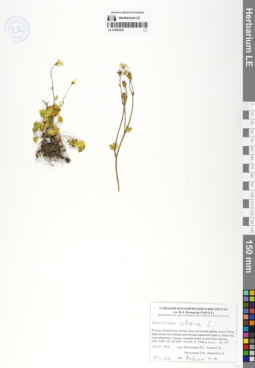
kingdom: Plantae
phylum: Tracheophyta
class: Magnoliopsida
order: Saxifragales
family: Saxifragaceae
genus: Saxifraga
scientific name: Saxifraga sibirica
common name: Siberian saxifrage
